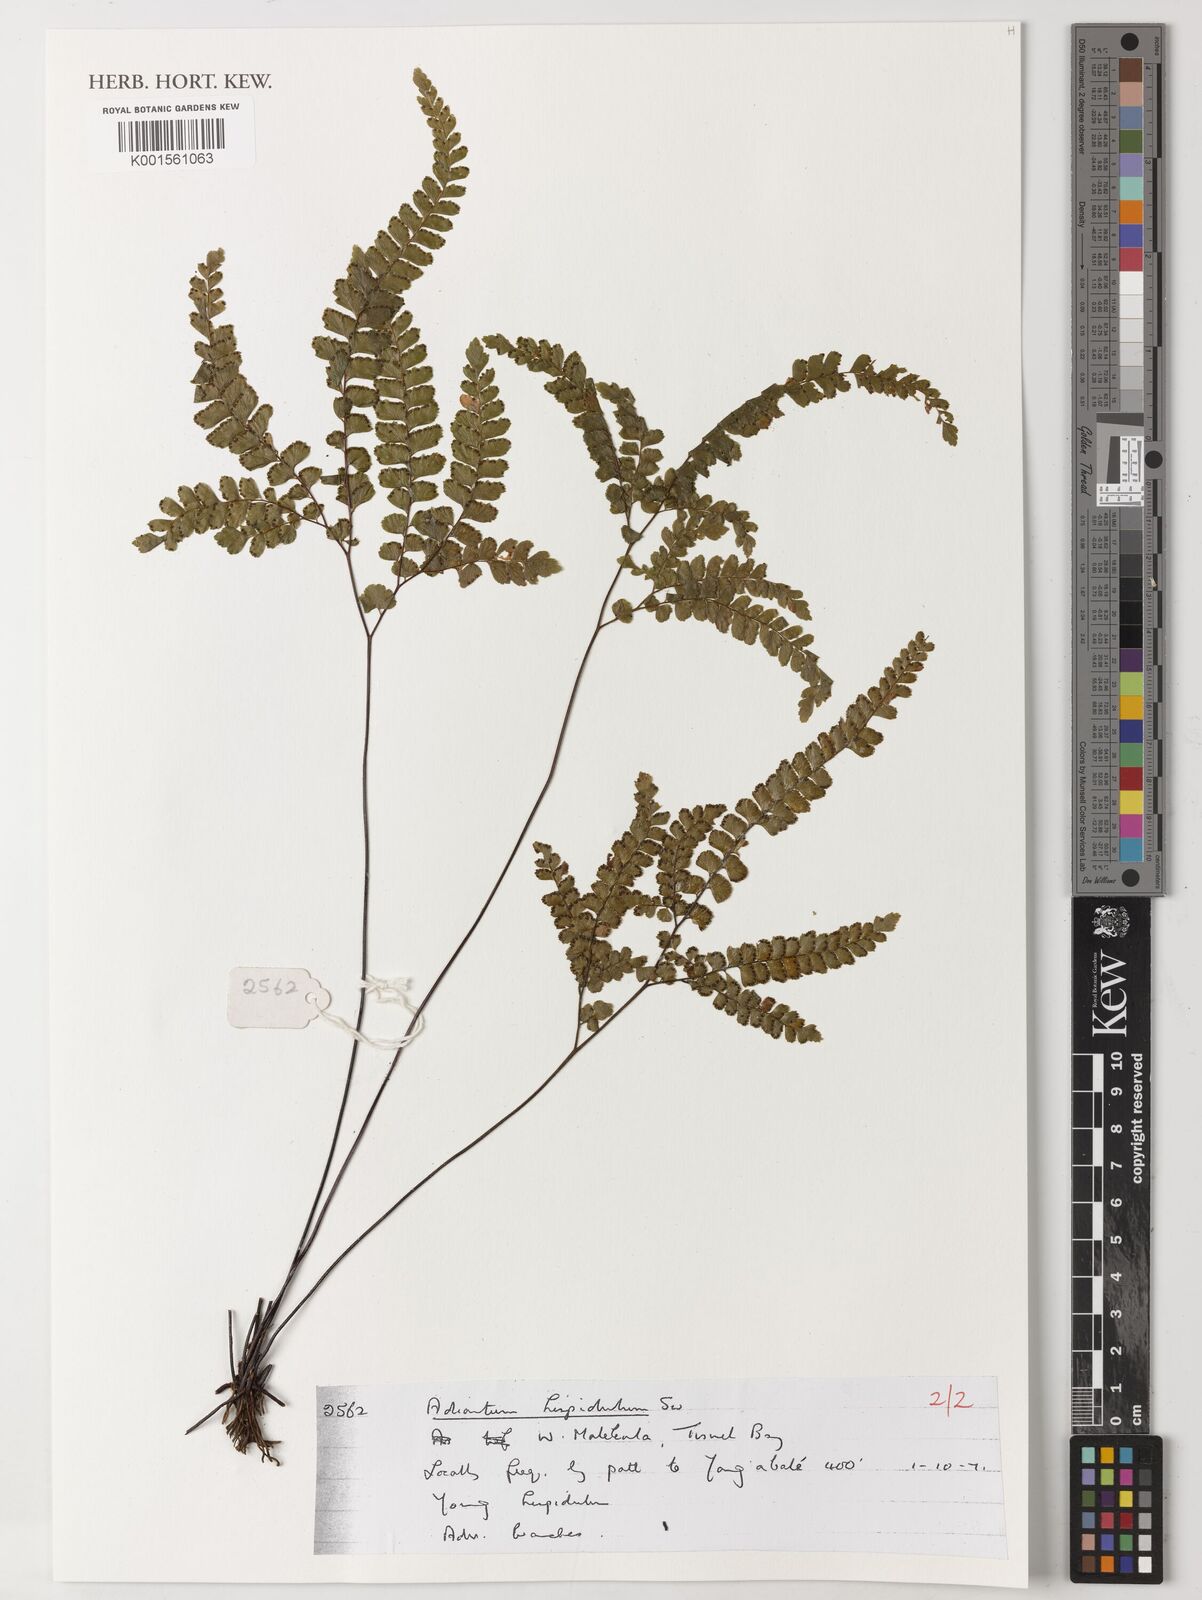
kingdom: Plantae
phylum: Tracheophyta
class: Polypodiopsida
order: Polypodiales
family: Pteridaceae
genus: Adiantum
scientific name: Adiantum hispidulum
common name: Rough maidenhair
